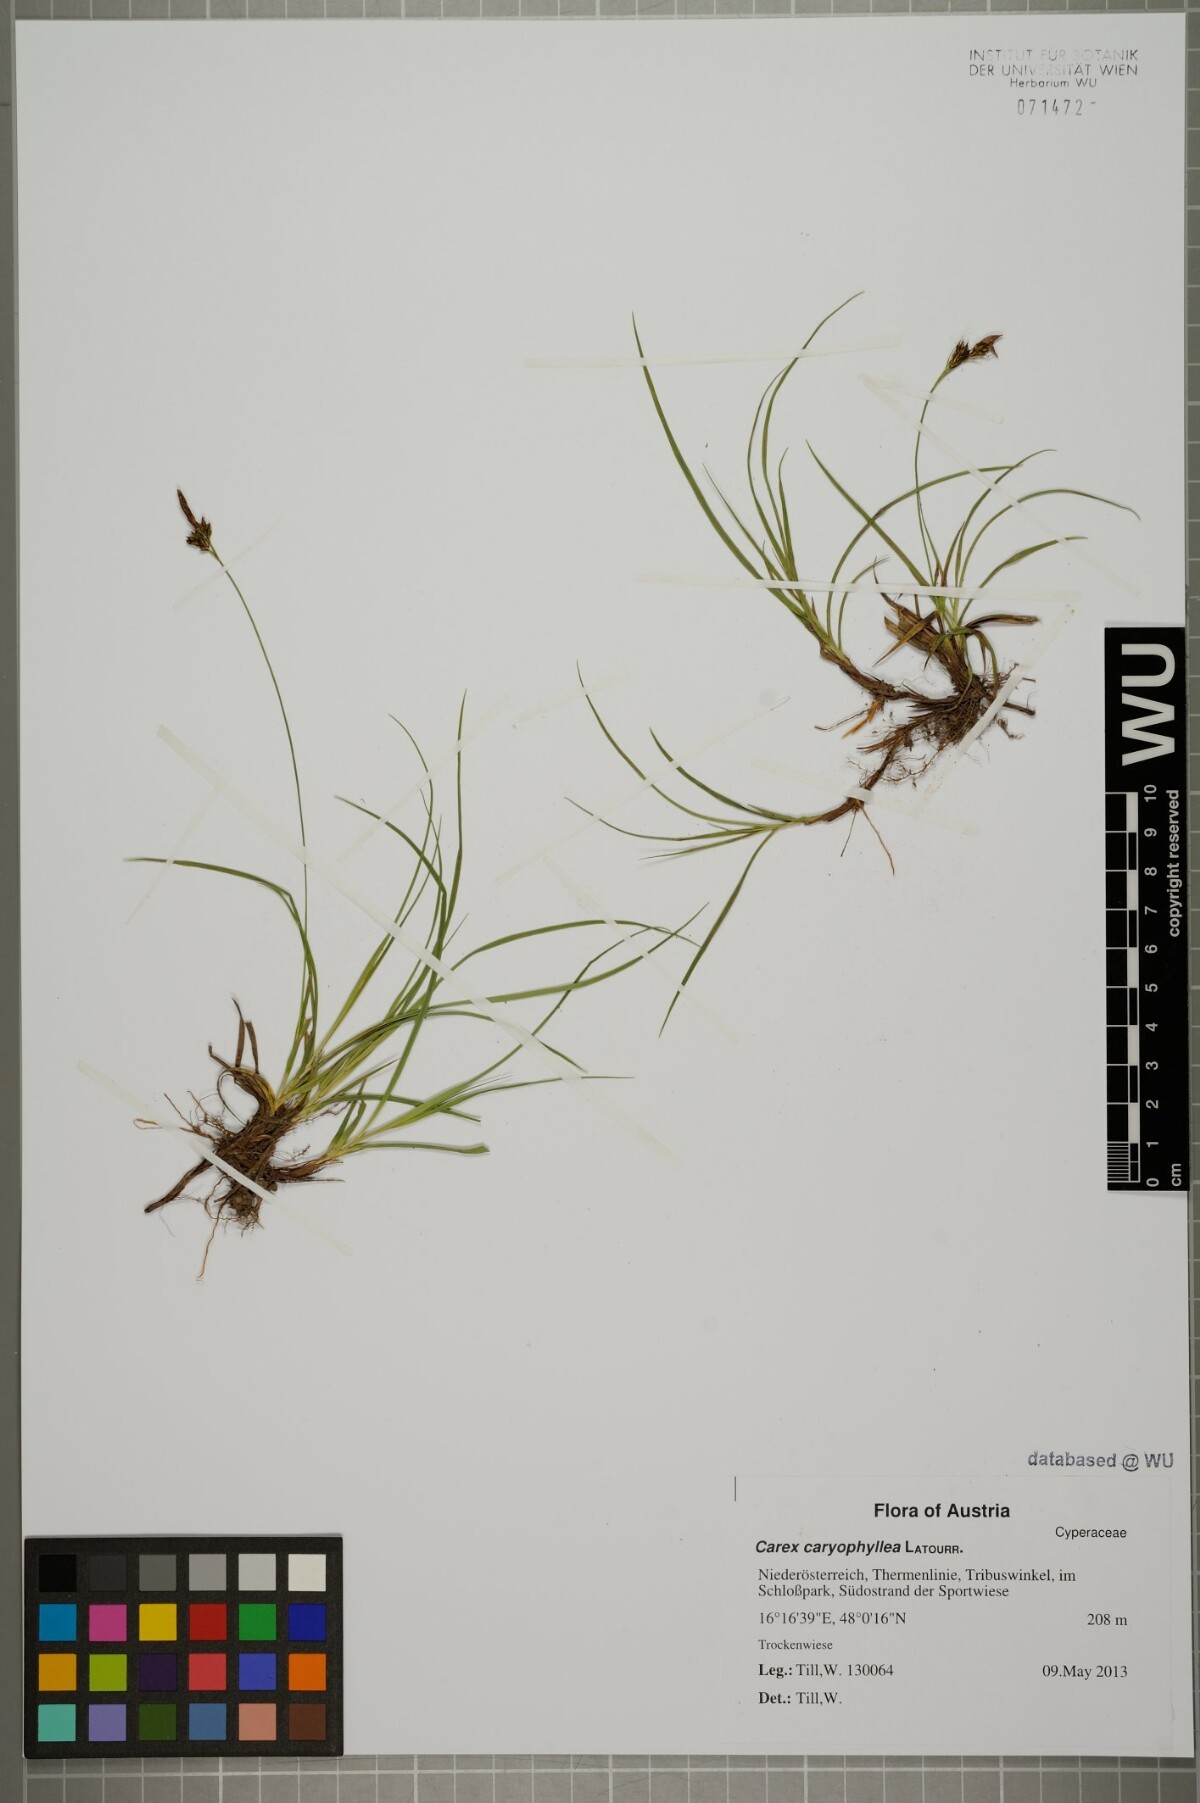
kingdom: Plantae
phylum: Tracheophyta
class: Liliopsida
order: Poales
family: Cyperaceae
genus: Carex
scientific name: Carex caryophyllea
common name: Spring sedge
